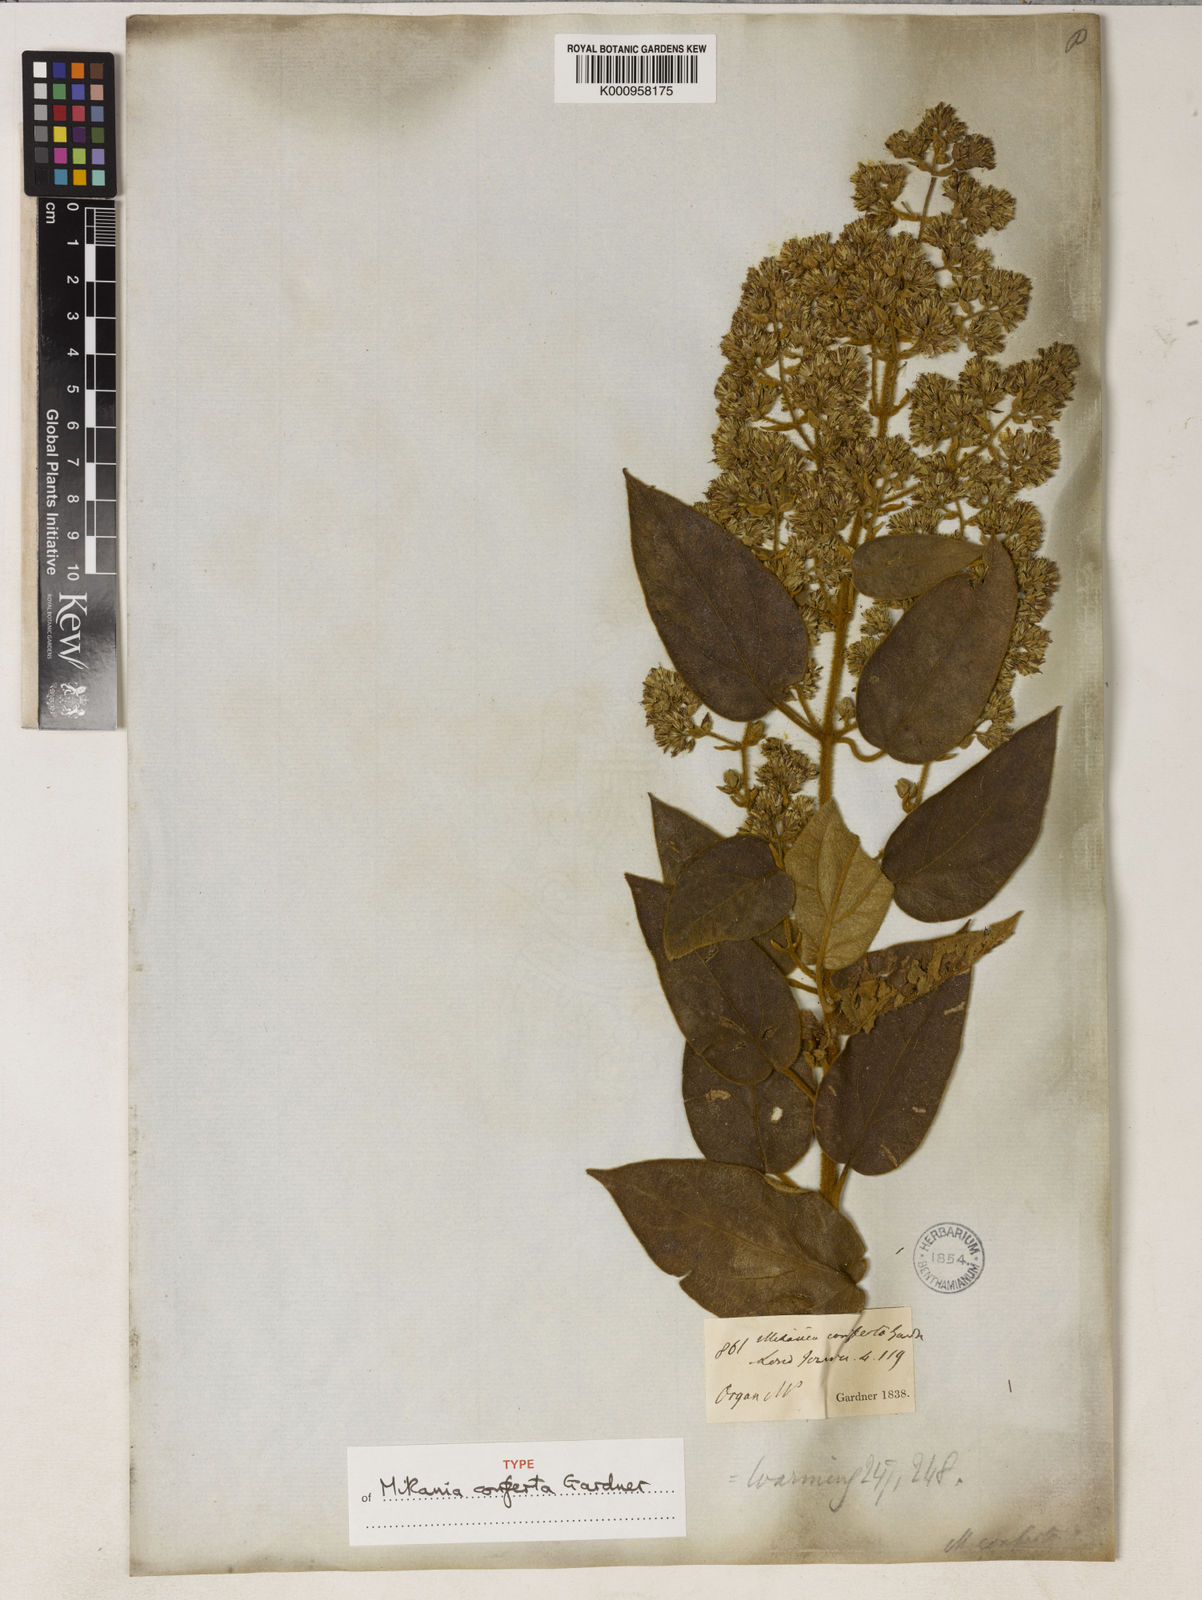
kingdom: Plantae
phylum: Tracheophyta
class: Magnoliopsida
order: Asterales
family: Asteraceae
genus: Mikania
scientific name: Mikania conferta
